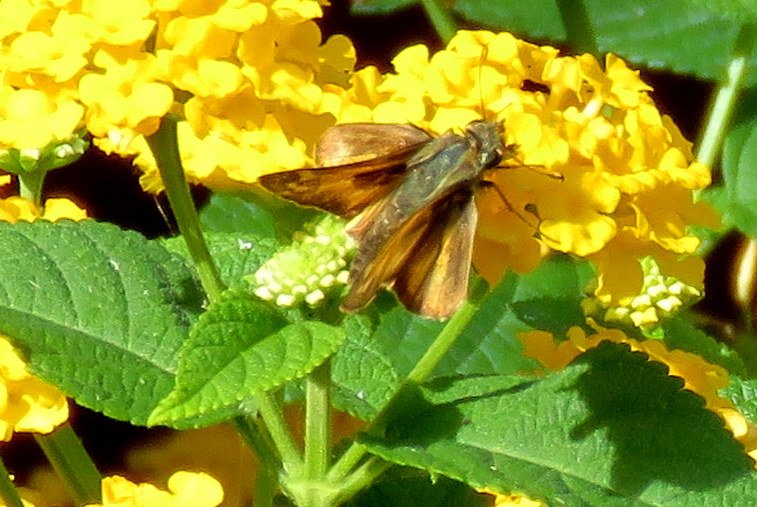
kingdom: Animalia
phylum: Arthropoda
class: Insecta
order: Lepidoptera
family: Hesperiidae
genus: Atalopedes
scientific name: Atalopedes campestris
